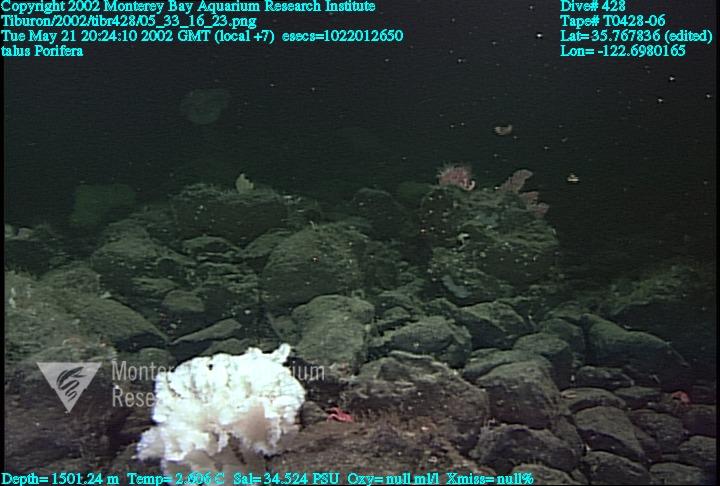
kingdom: Animalia
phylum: Porifera
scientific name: Porifera
